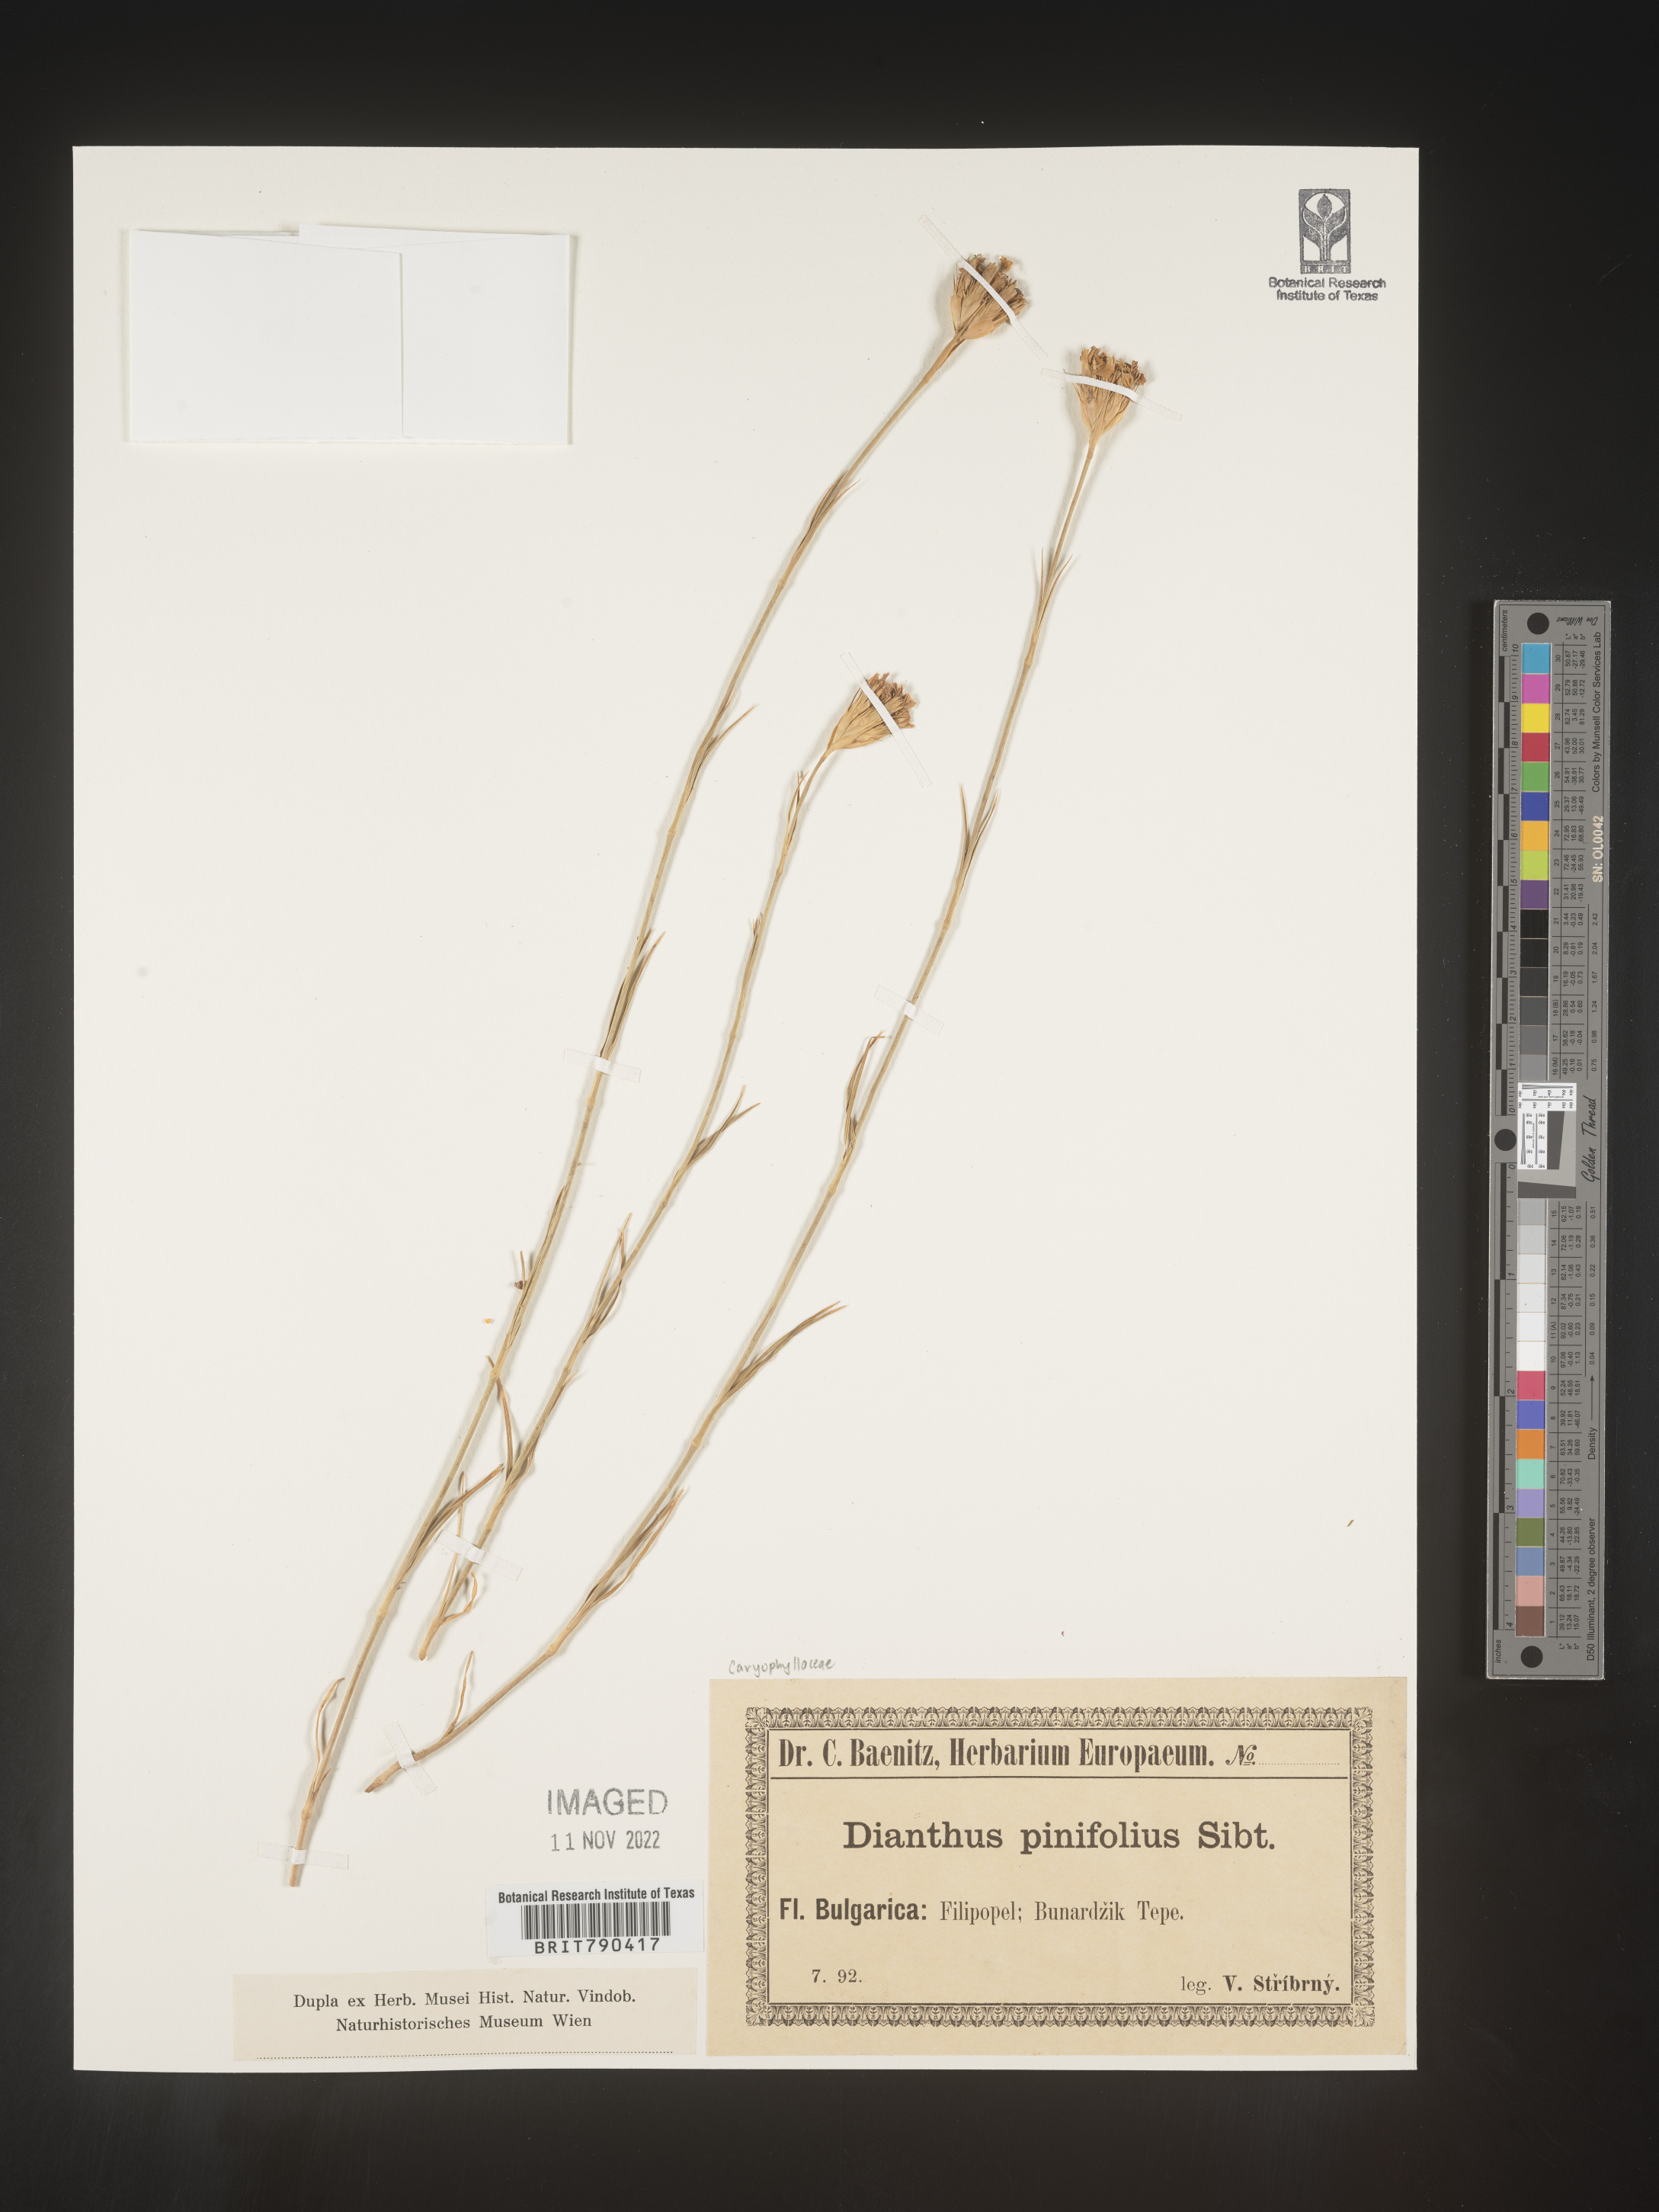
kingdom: Plantae
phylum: Tracheophyta
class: Magnoliopsida
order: Caryophyllales
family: Caryophyllaceae
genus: Dianthus
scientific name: Dianthus
